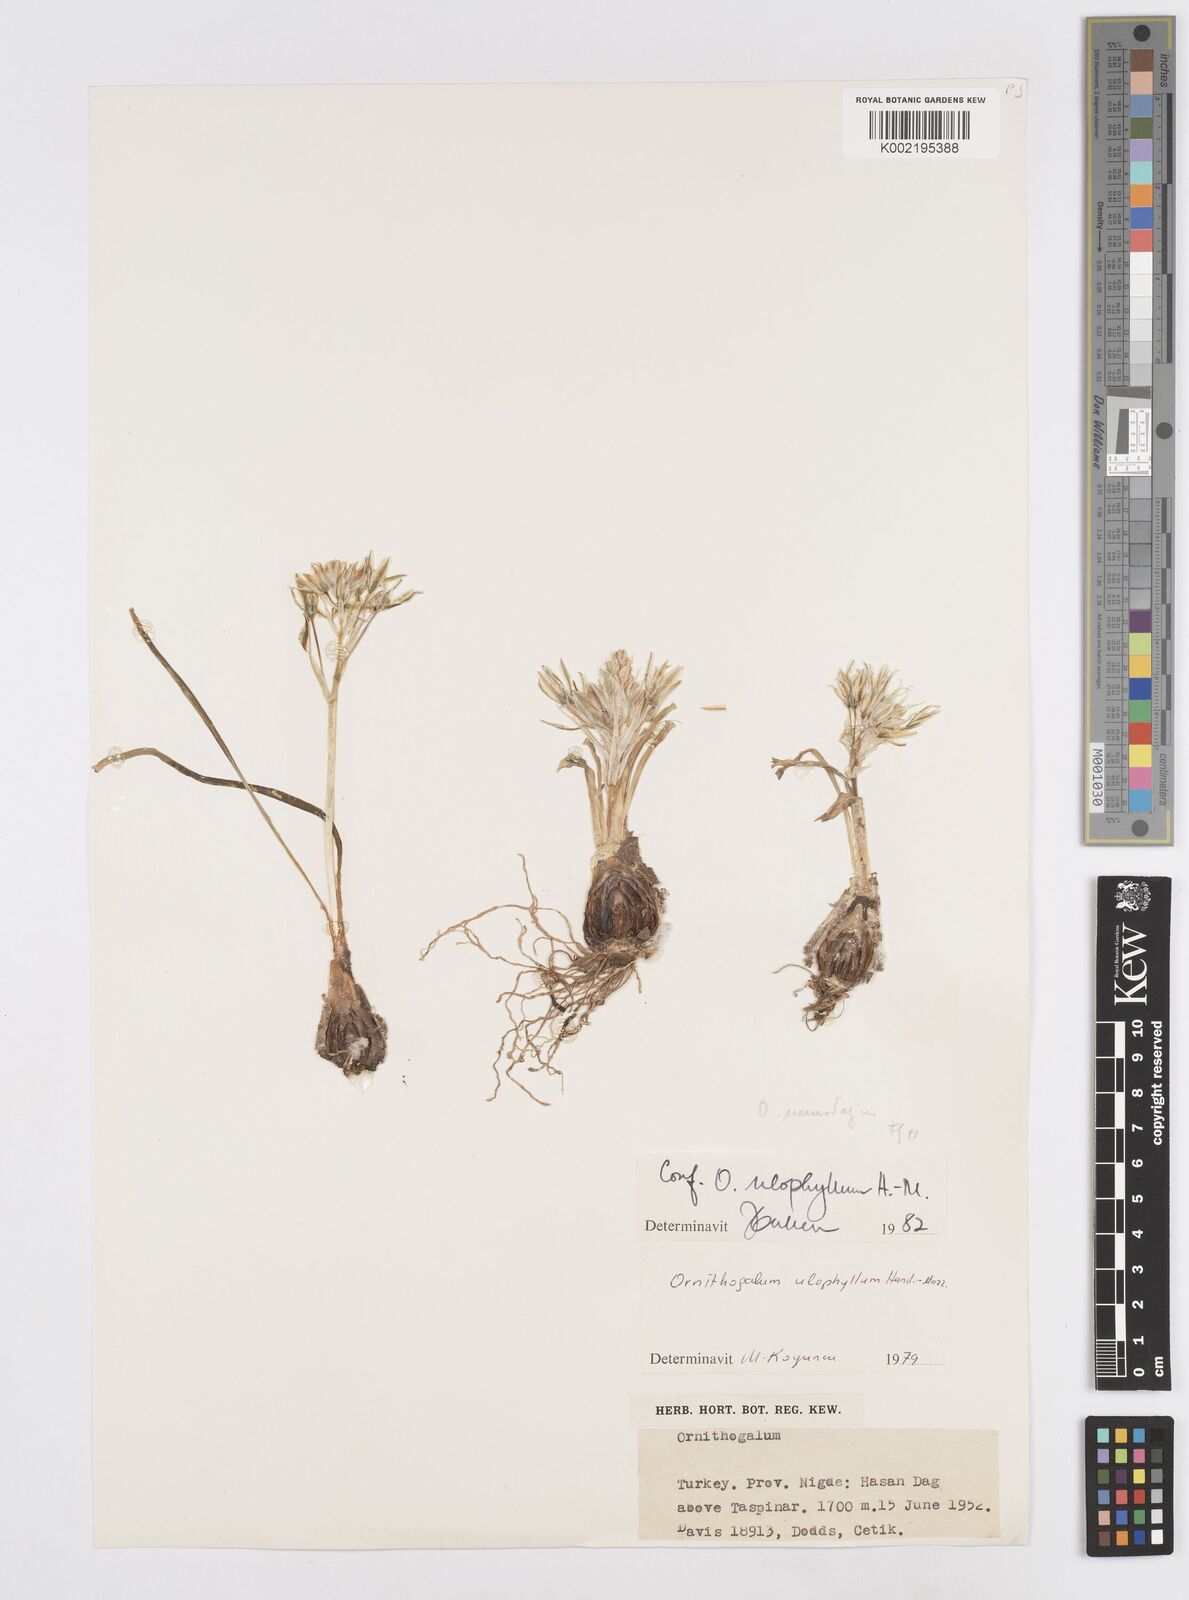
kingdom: Plantae
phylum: Tracheophyta
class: Liliopsida
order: Asparagales
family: Asparagaceae
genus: Ornithogalum
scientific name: Ornithogalum neurostegium
